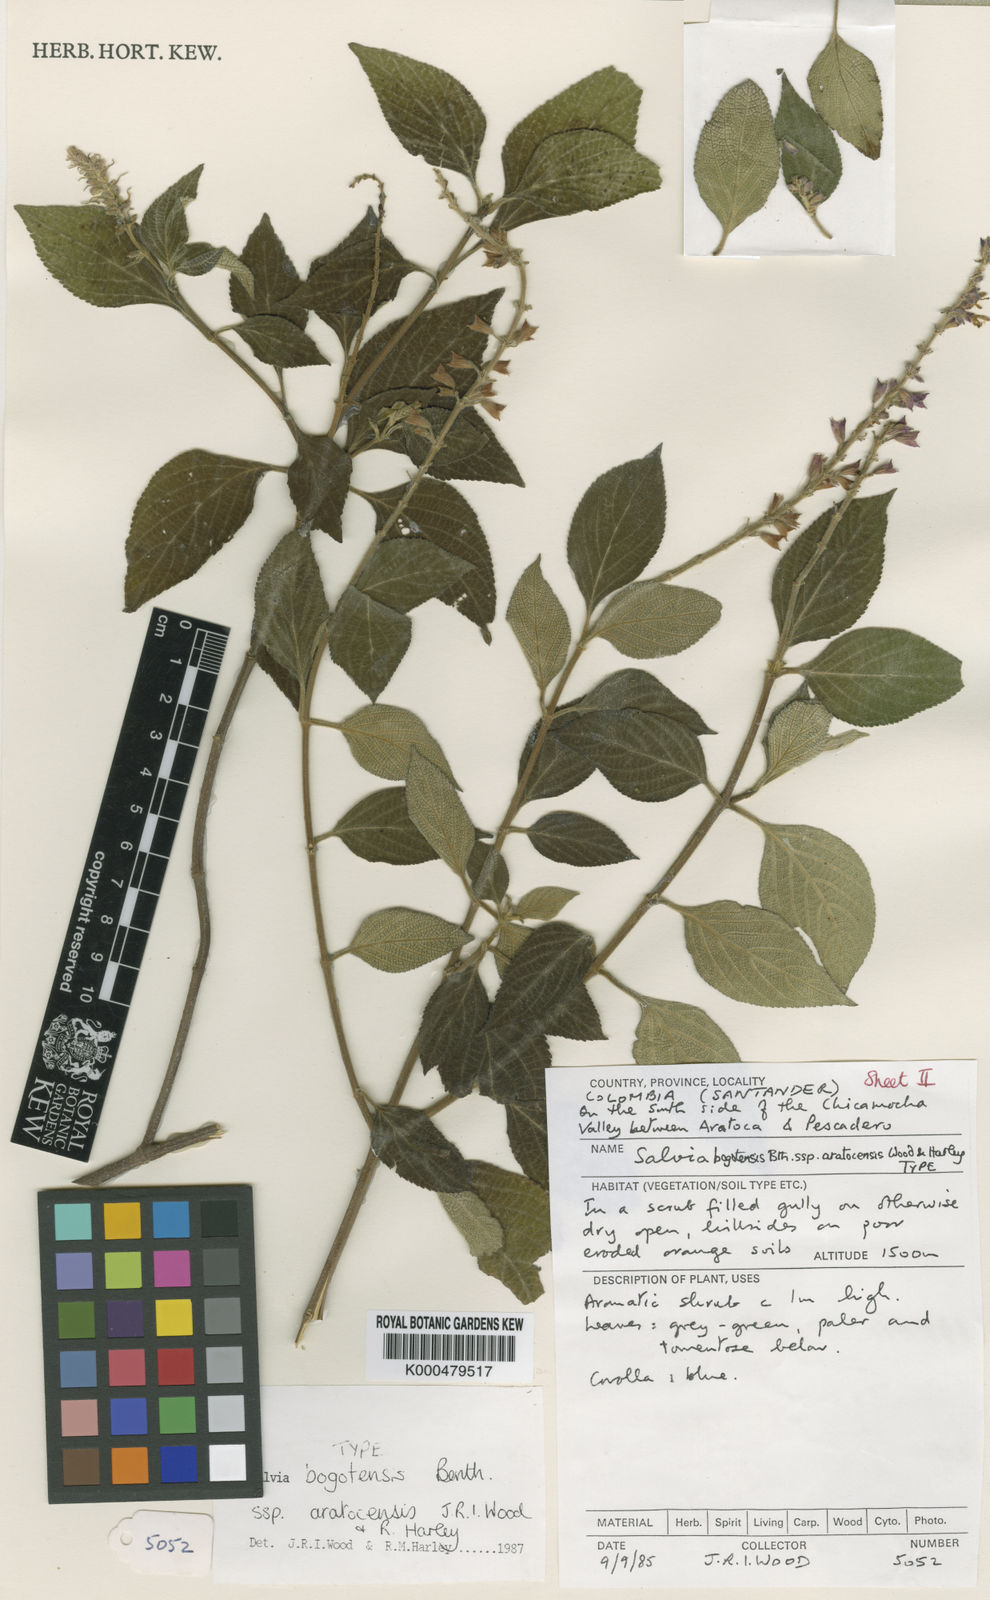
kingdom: Plantae
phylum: Tracheophyta
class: Magnoliopsida
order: Lamiales
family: Lamiaceae
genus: Salvia
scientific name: Salvia bogotensis
